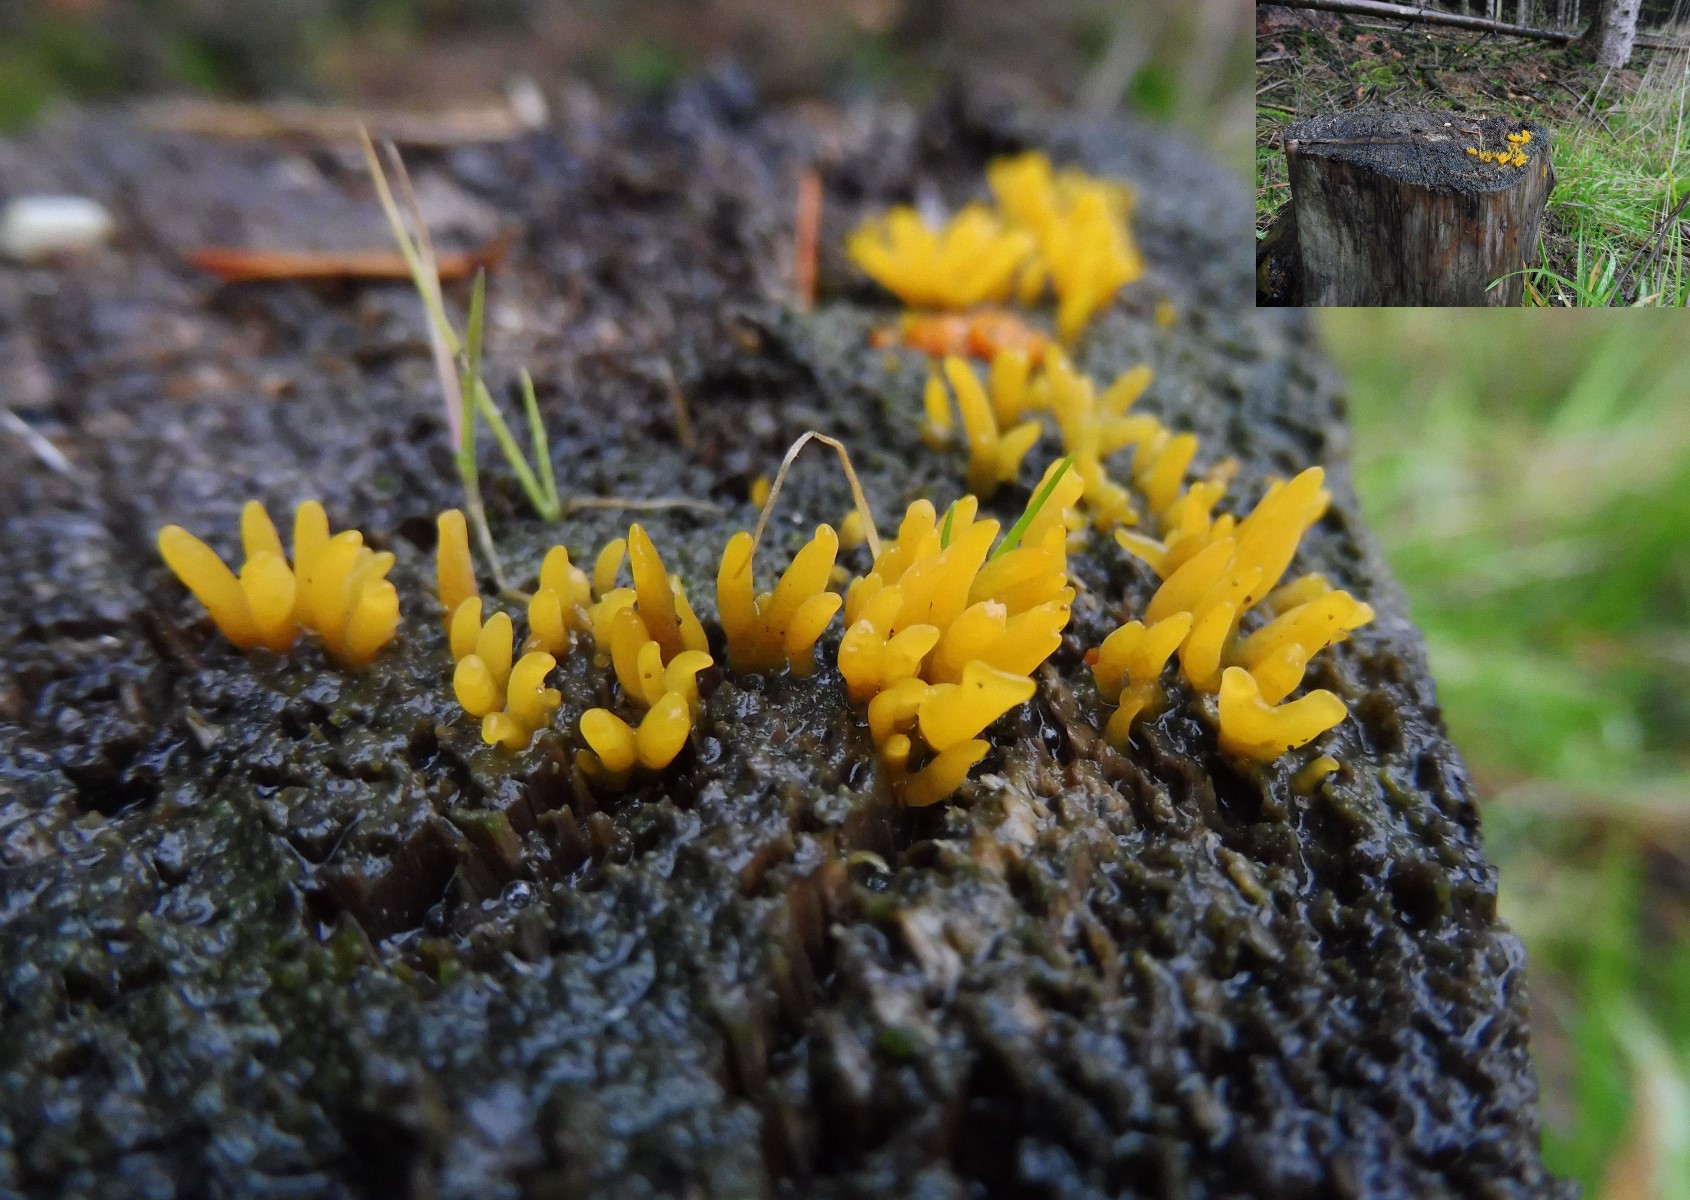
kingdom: Fungi
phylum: Basidiomycota
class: Dacrymycetes
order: Dacrymycetales
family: Dacrymycetaceae
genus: Calocera
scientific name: Calocera furcata
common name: fyrre-guldgaffel
